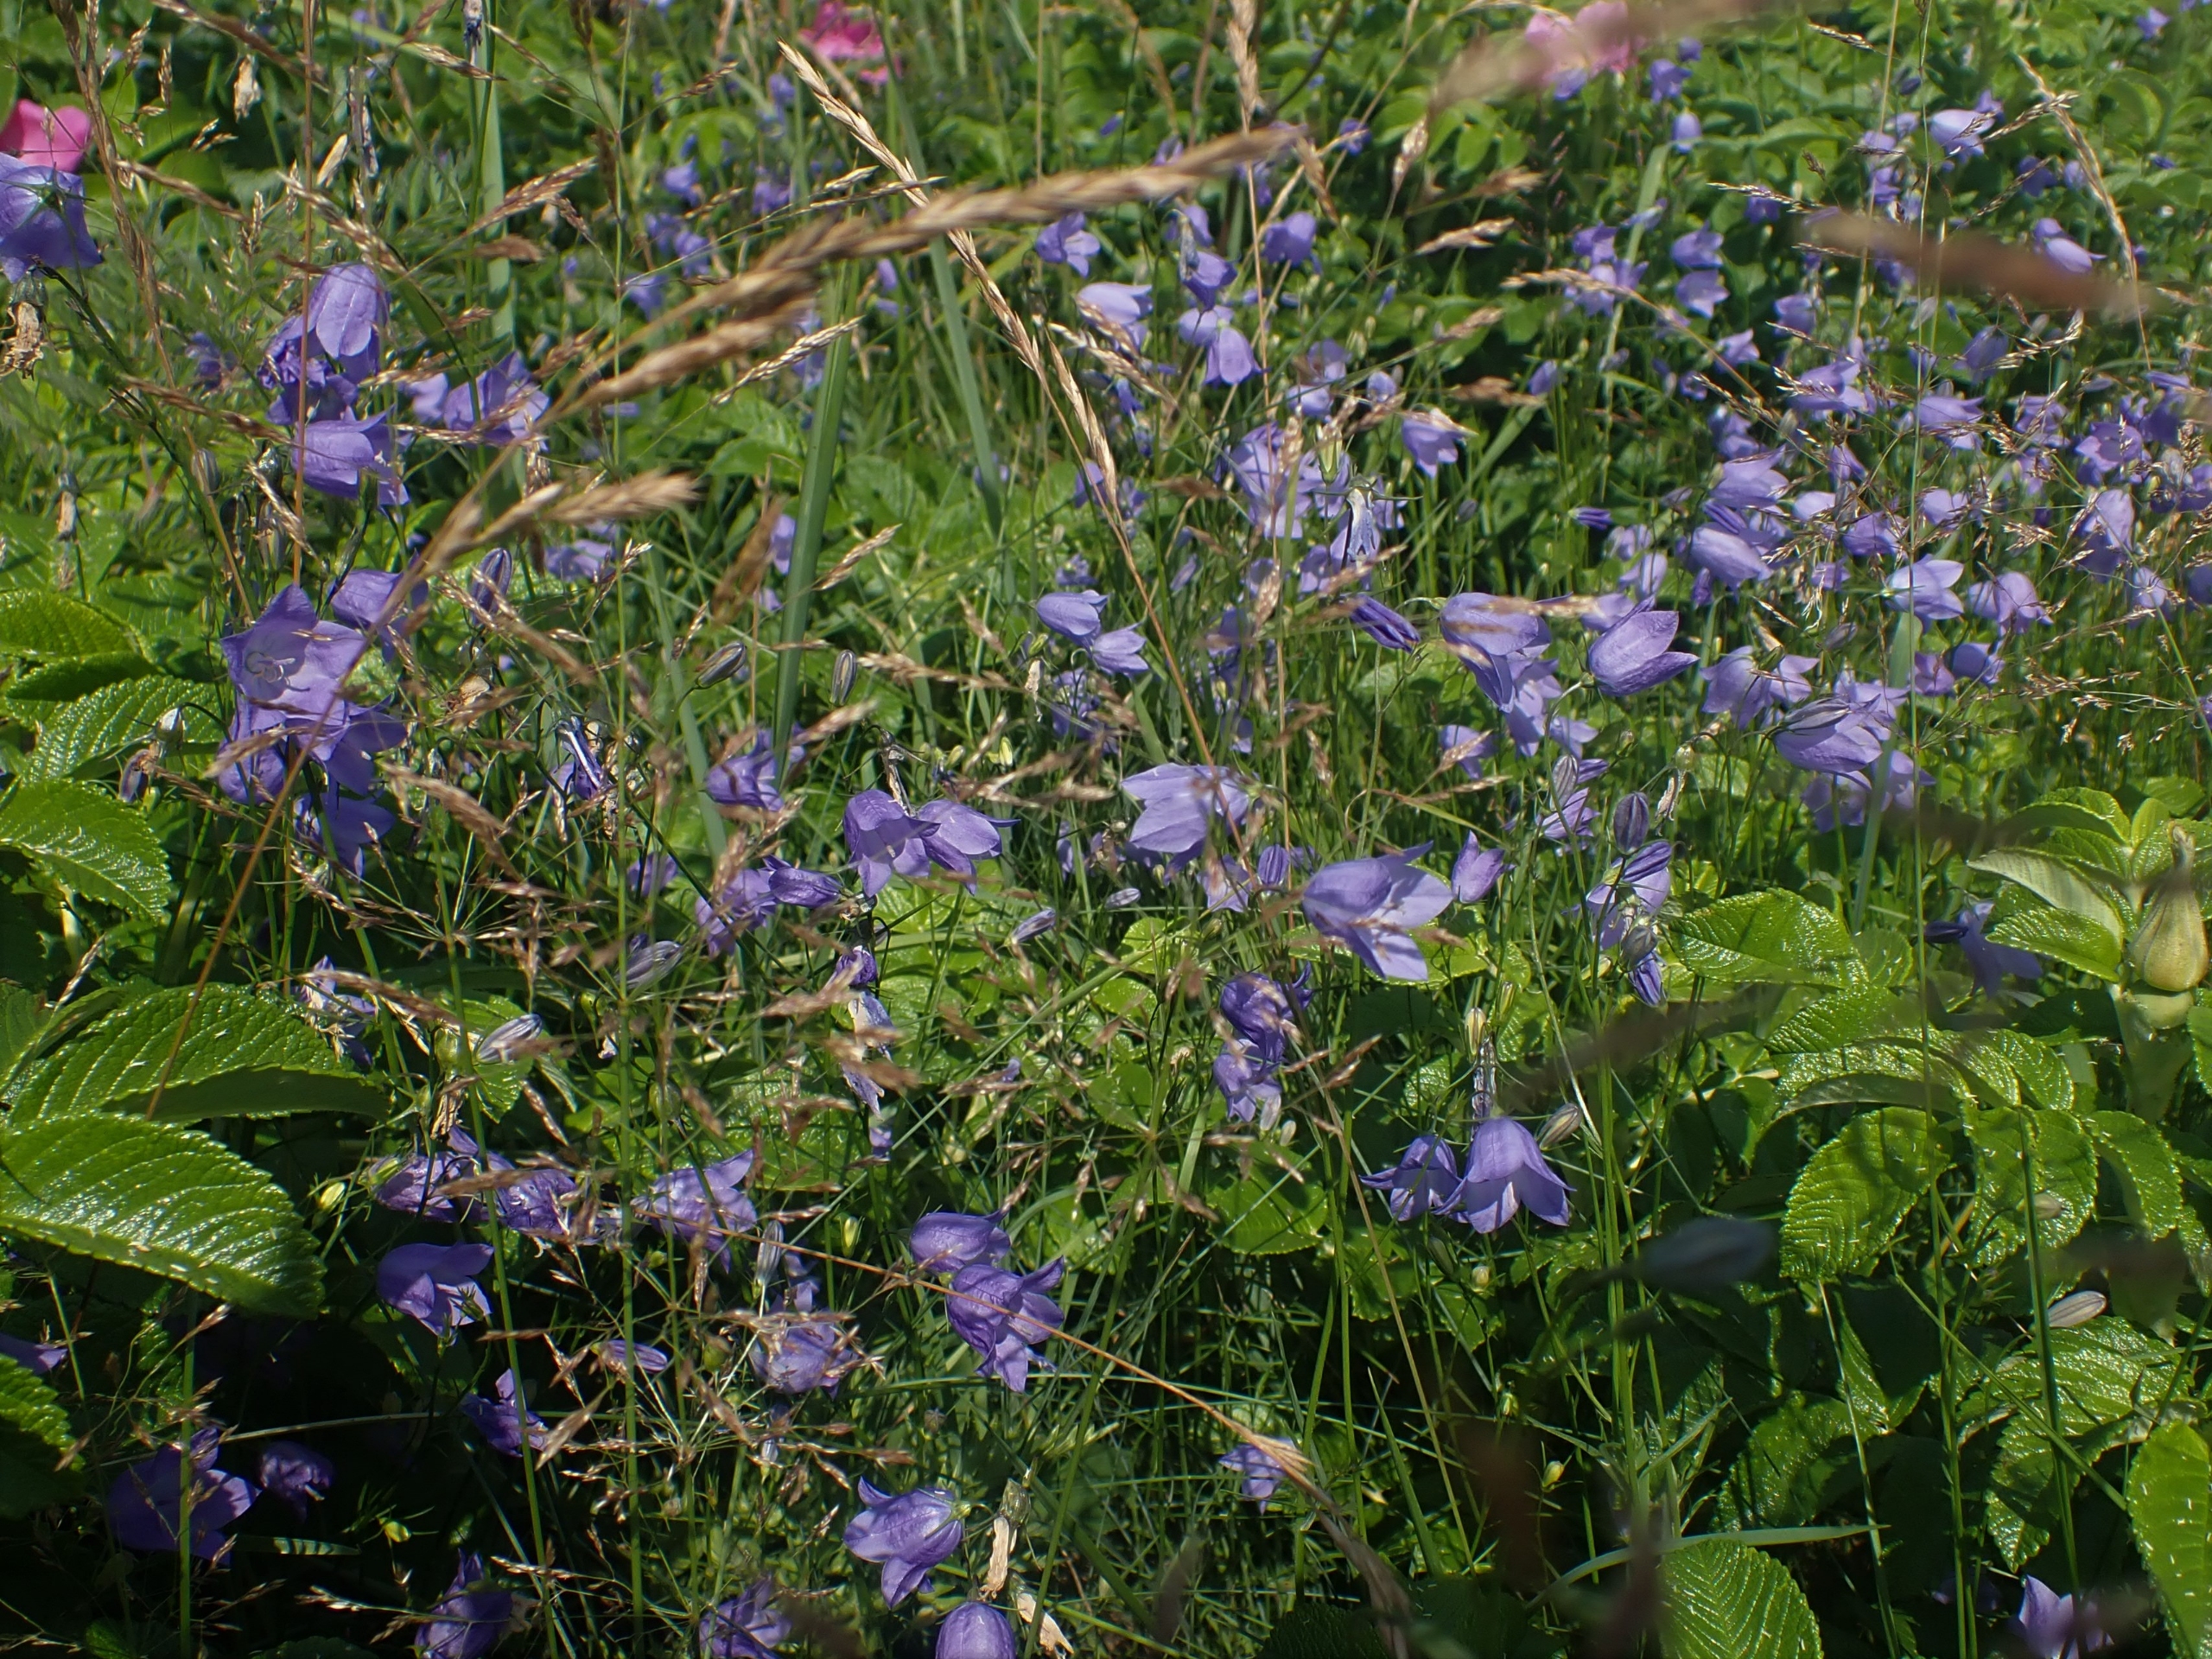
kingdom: Plantae
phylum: Tracheophyta
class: Magnoliopsida
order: Asterales
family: Campanulaceae
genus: Campanula
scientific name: Campanula rotundifolia
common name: Liden klokke
